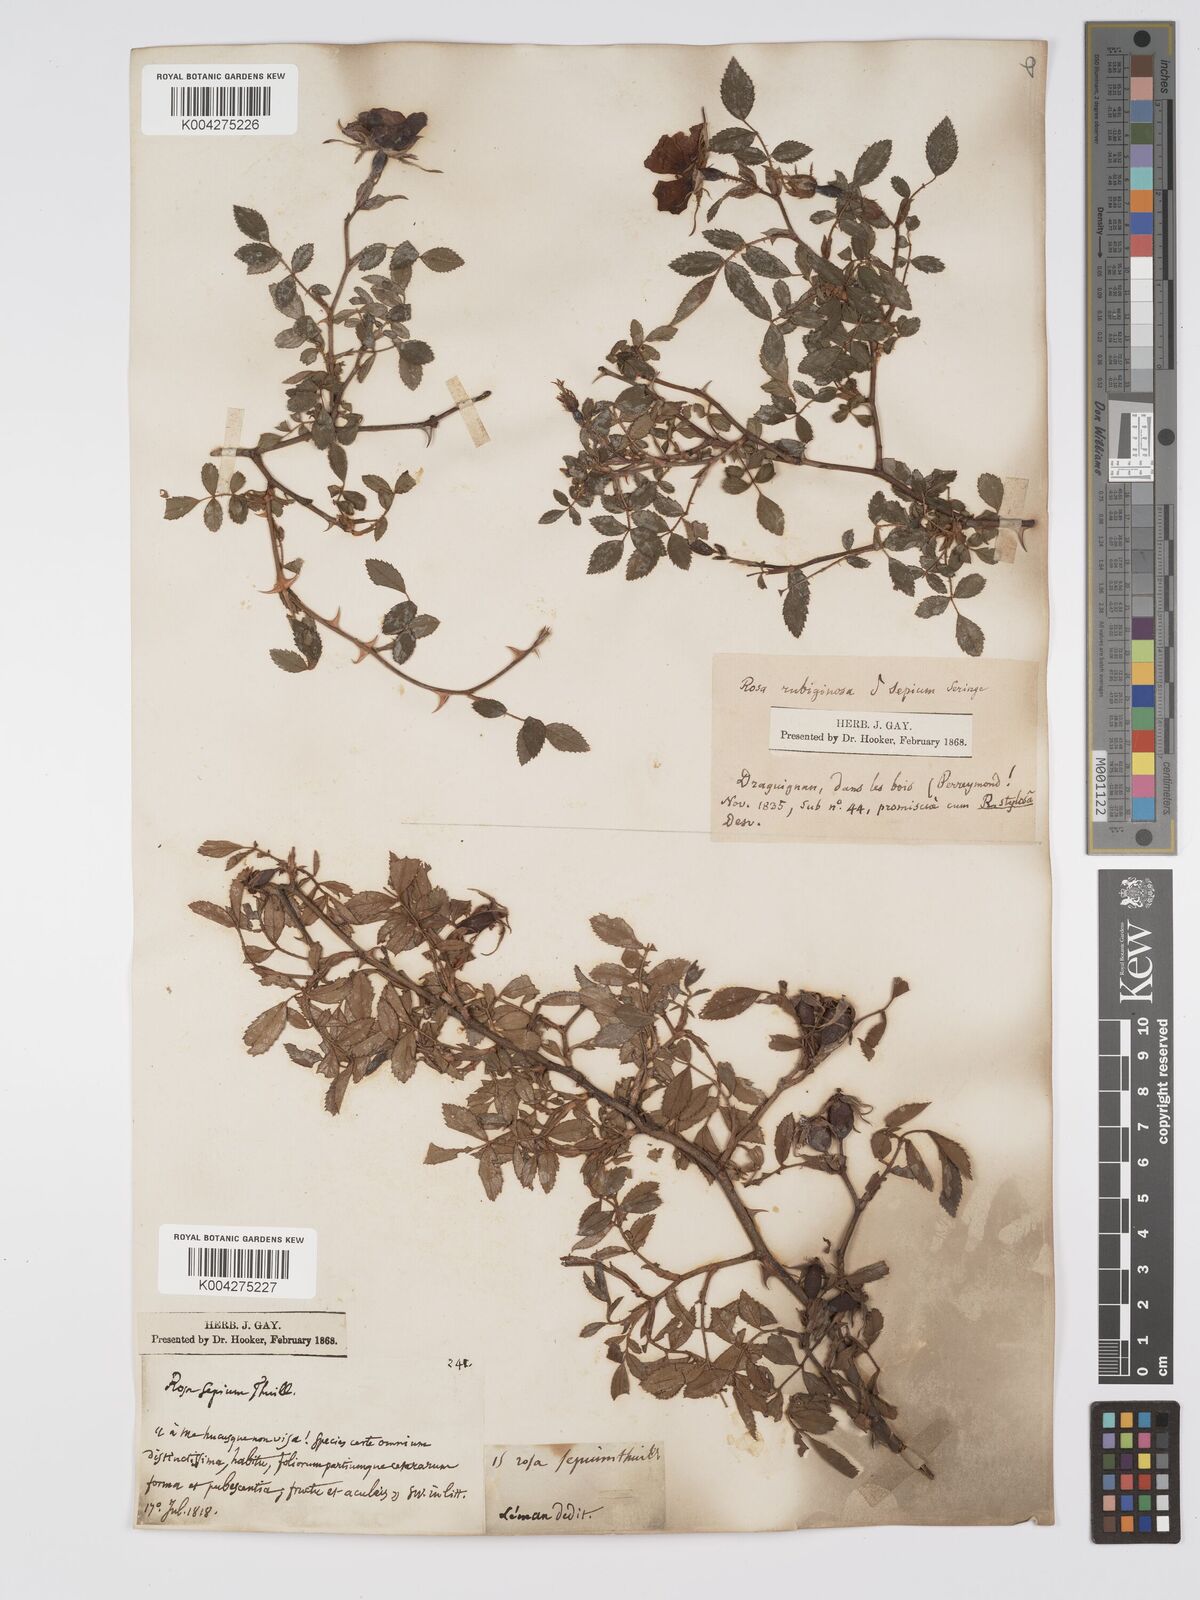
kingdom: Plantae
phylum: Tracheophyta
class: Magnoliopsida
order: Rosales
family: Rosaceae
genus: Rosa
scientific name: Rosa
